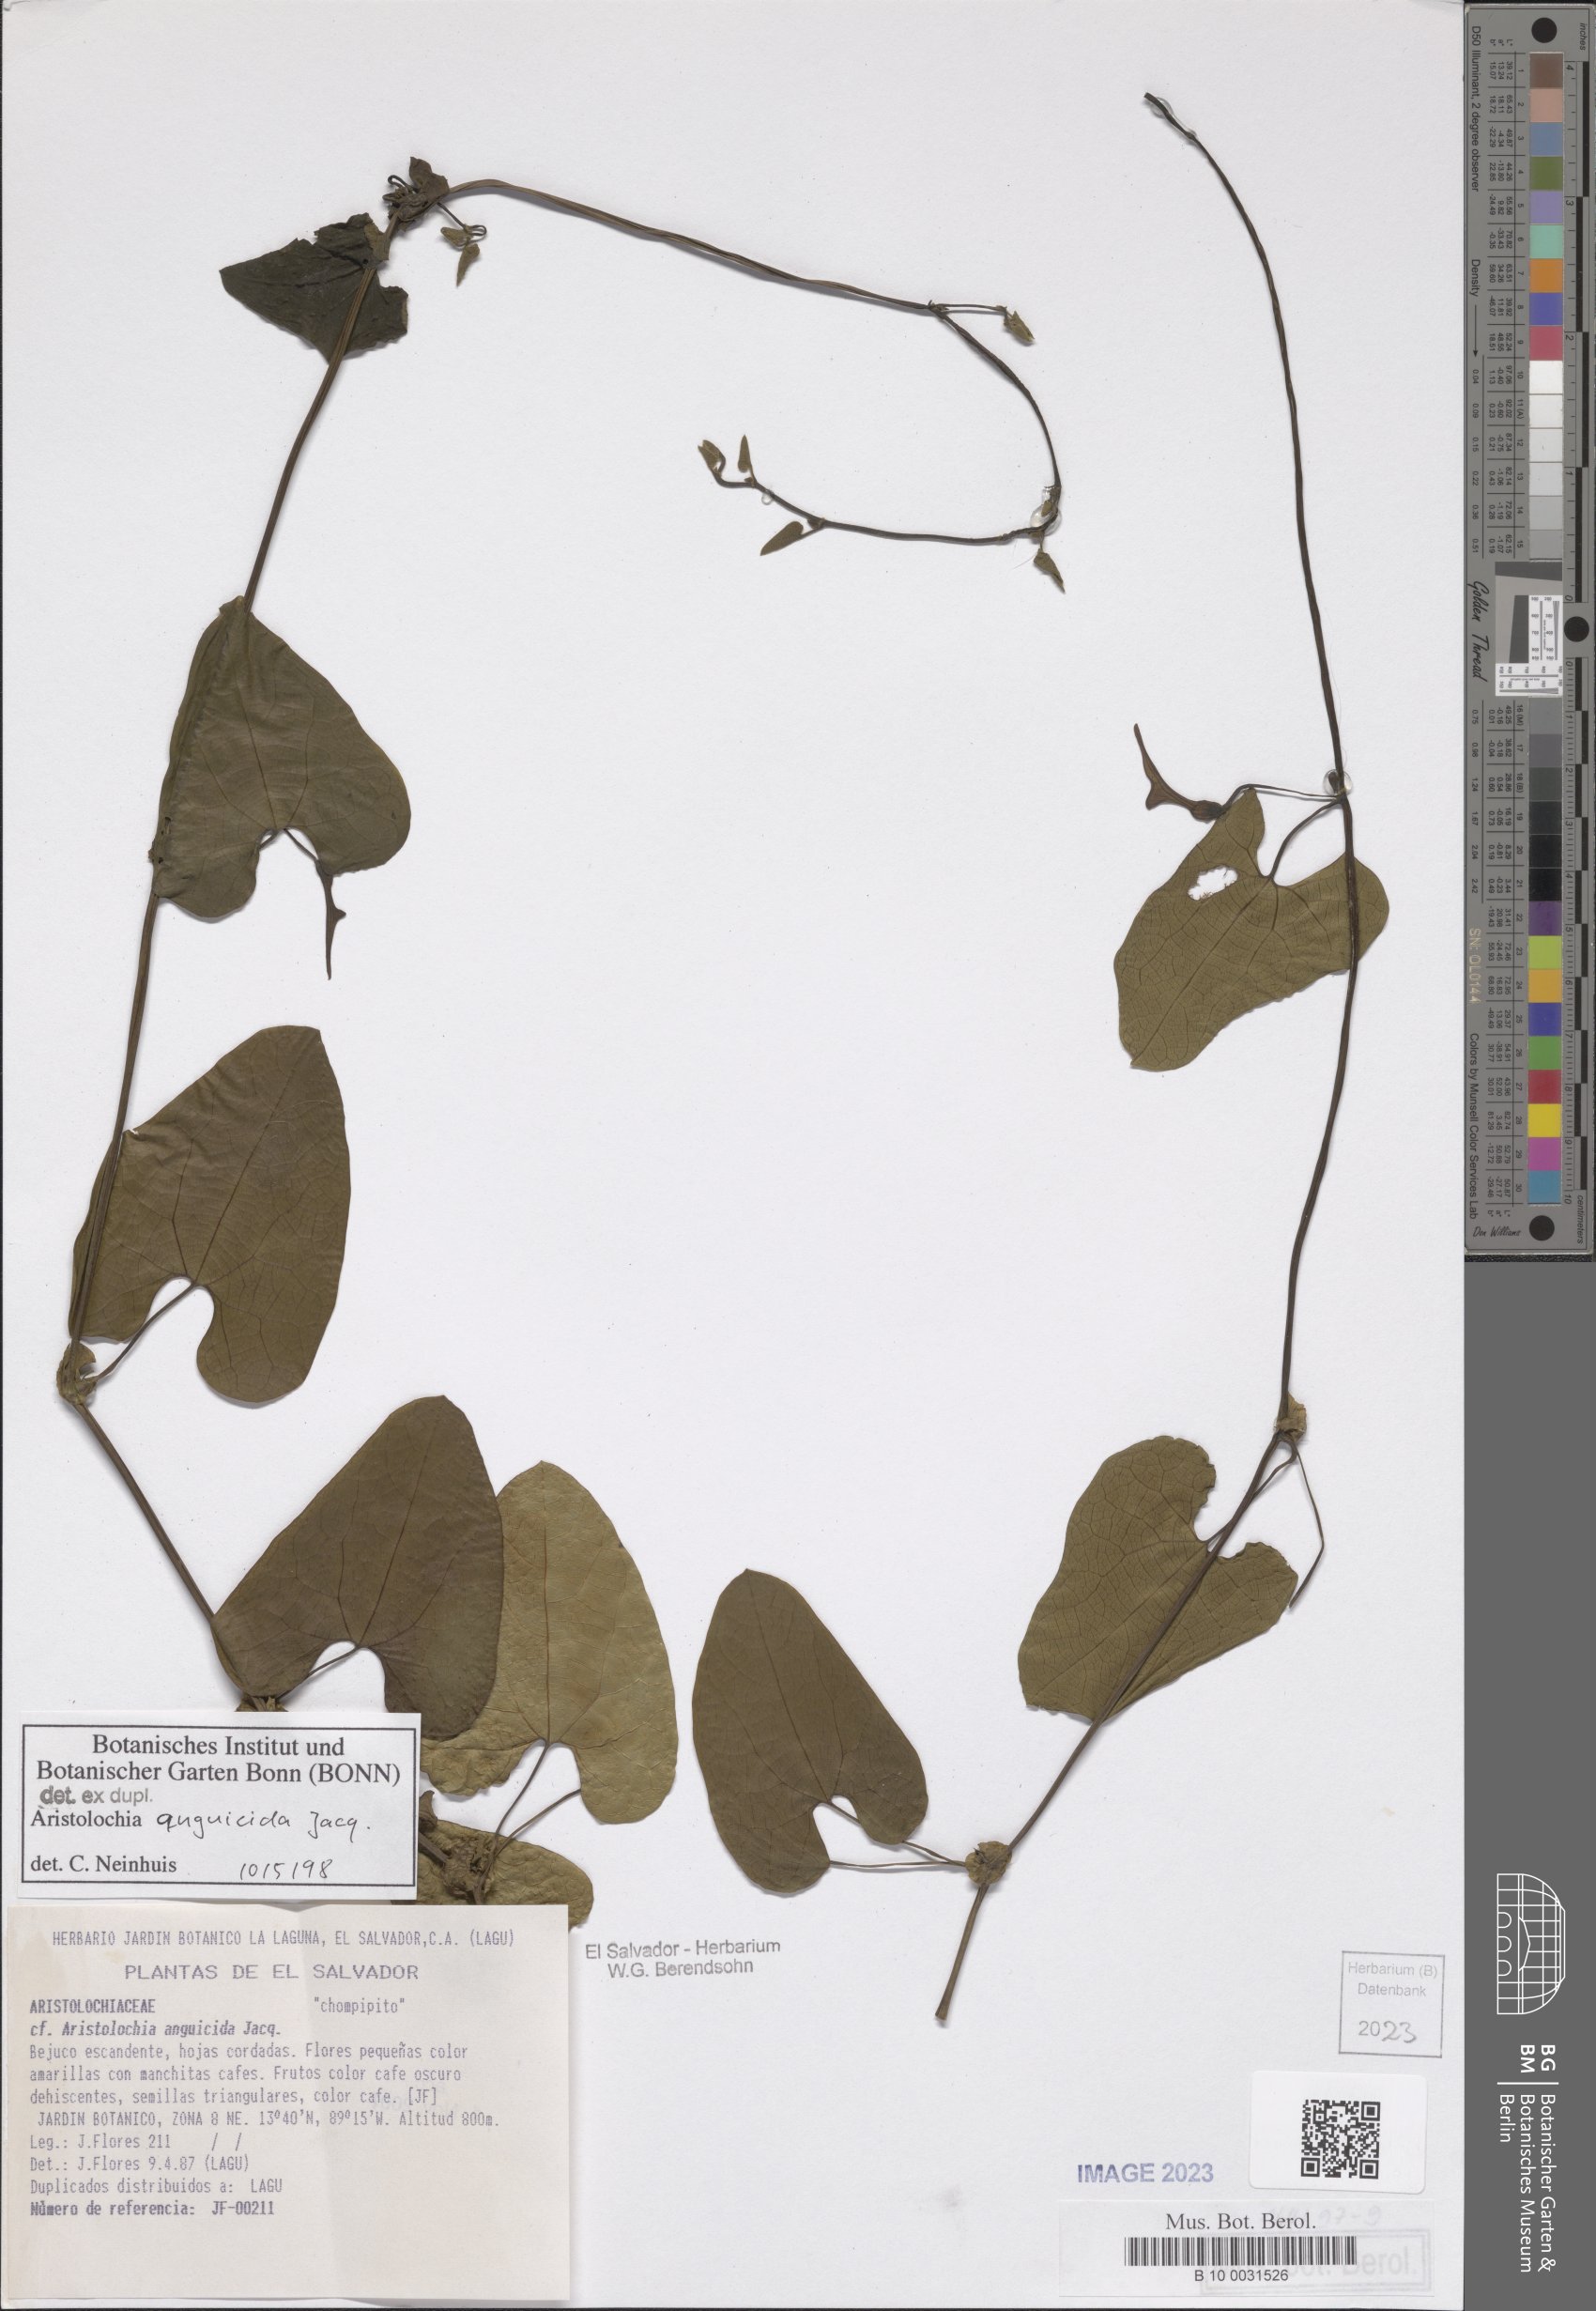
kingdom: Plantae
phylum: Tracheophyta
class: Magnoliopsida
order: Piperales
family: Aristolochiaceae
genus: Aristolochia
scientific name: Aristolochia anguicida
